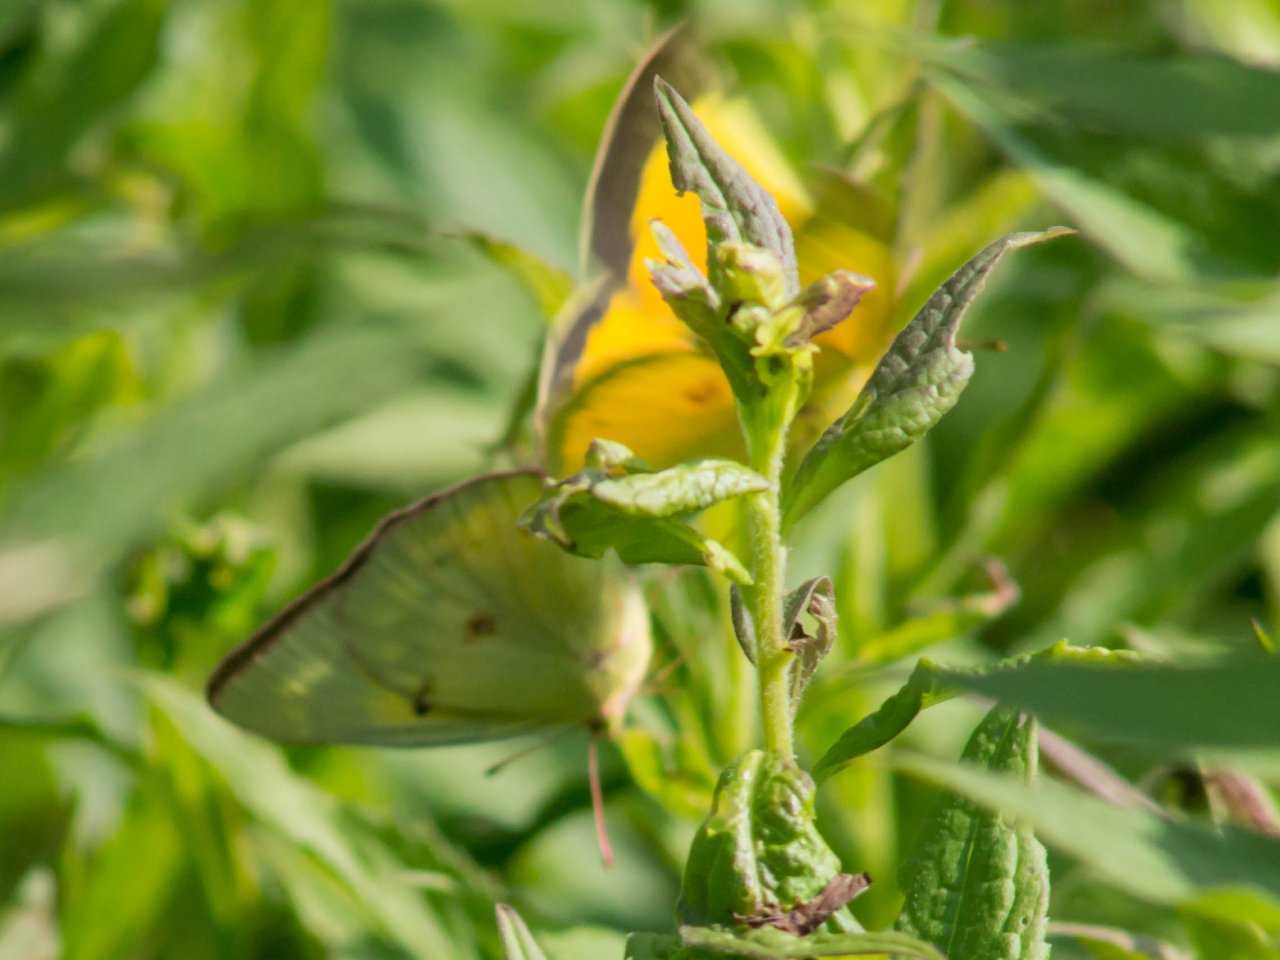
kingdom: Animalia
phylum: Arthropoda
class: Insecta
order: Lepidoptera
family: Pieridae
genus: Colias
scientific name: Colias eurytheme
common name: Orange Sulphur
